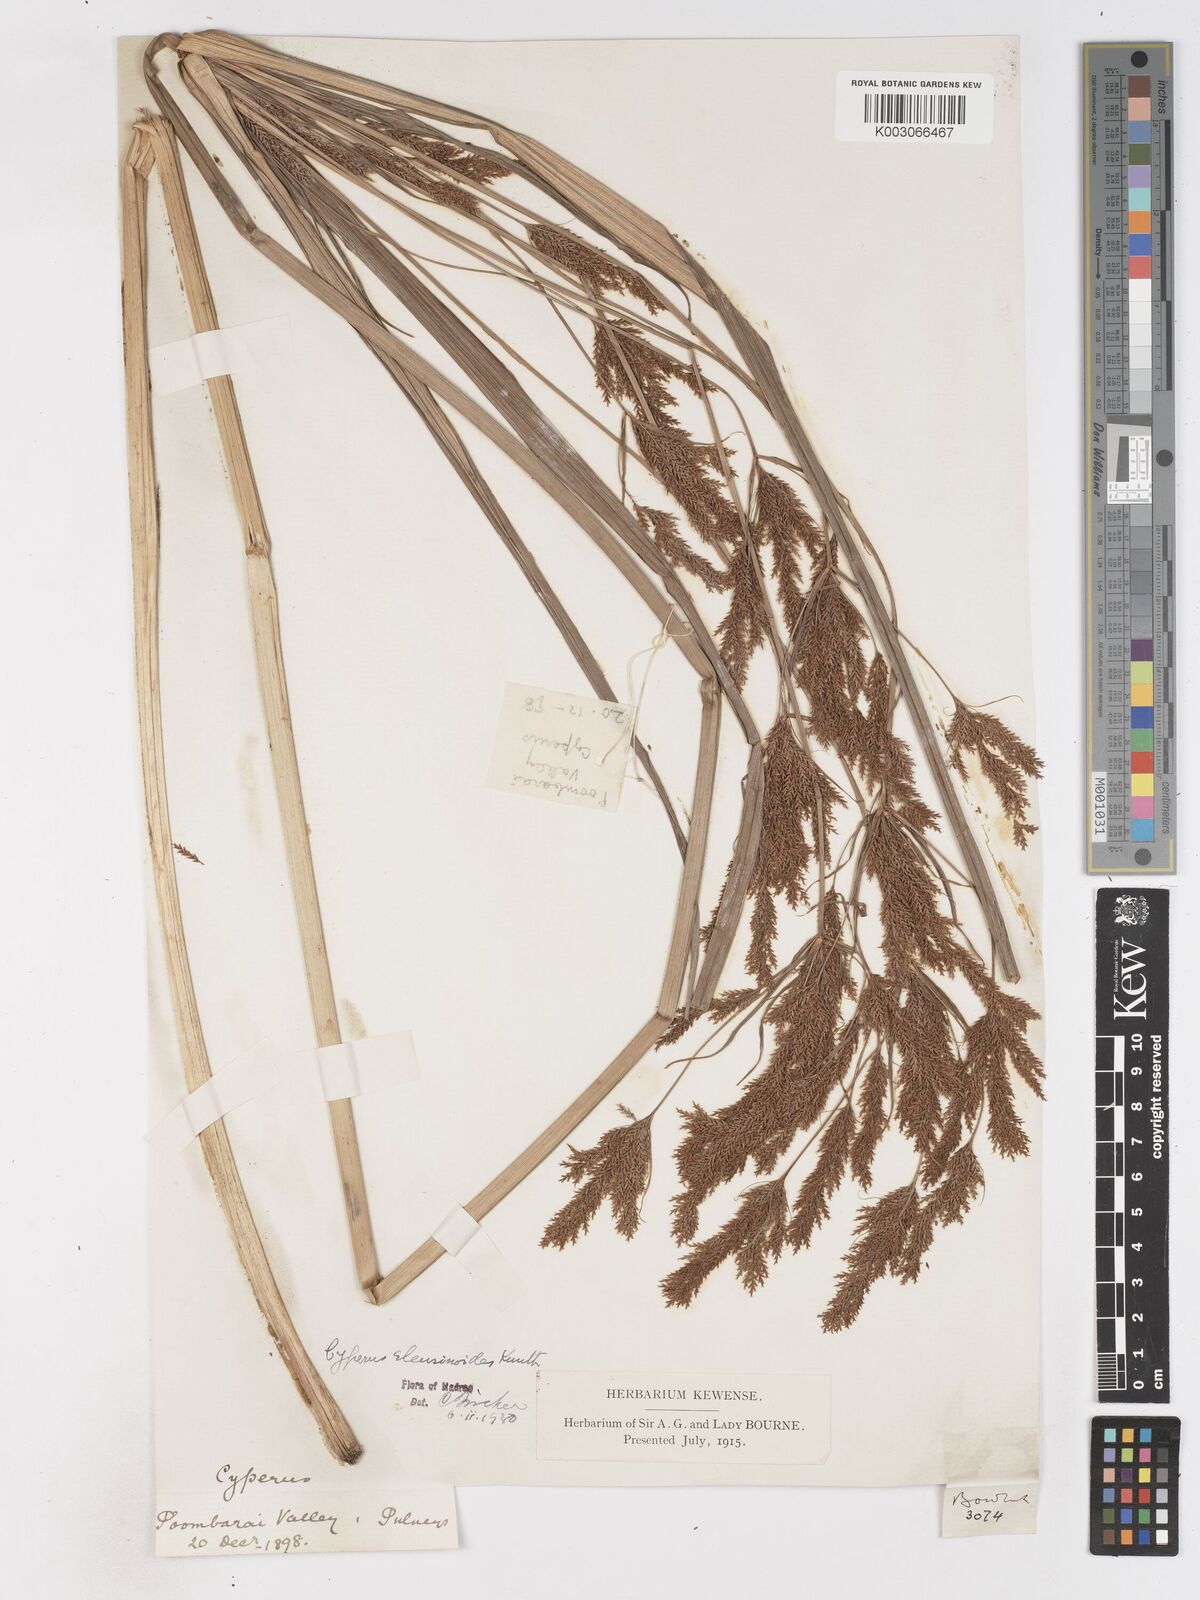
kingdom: Plantae
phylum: Tracheophyta
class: Liliopsida
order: Poales
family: Cyperaceae
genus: Cyperus
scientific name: Cyperus nutans
